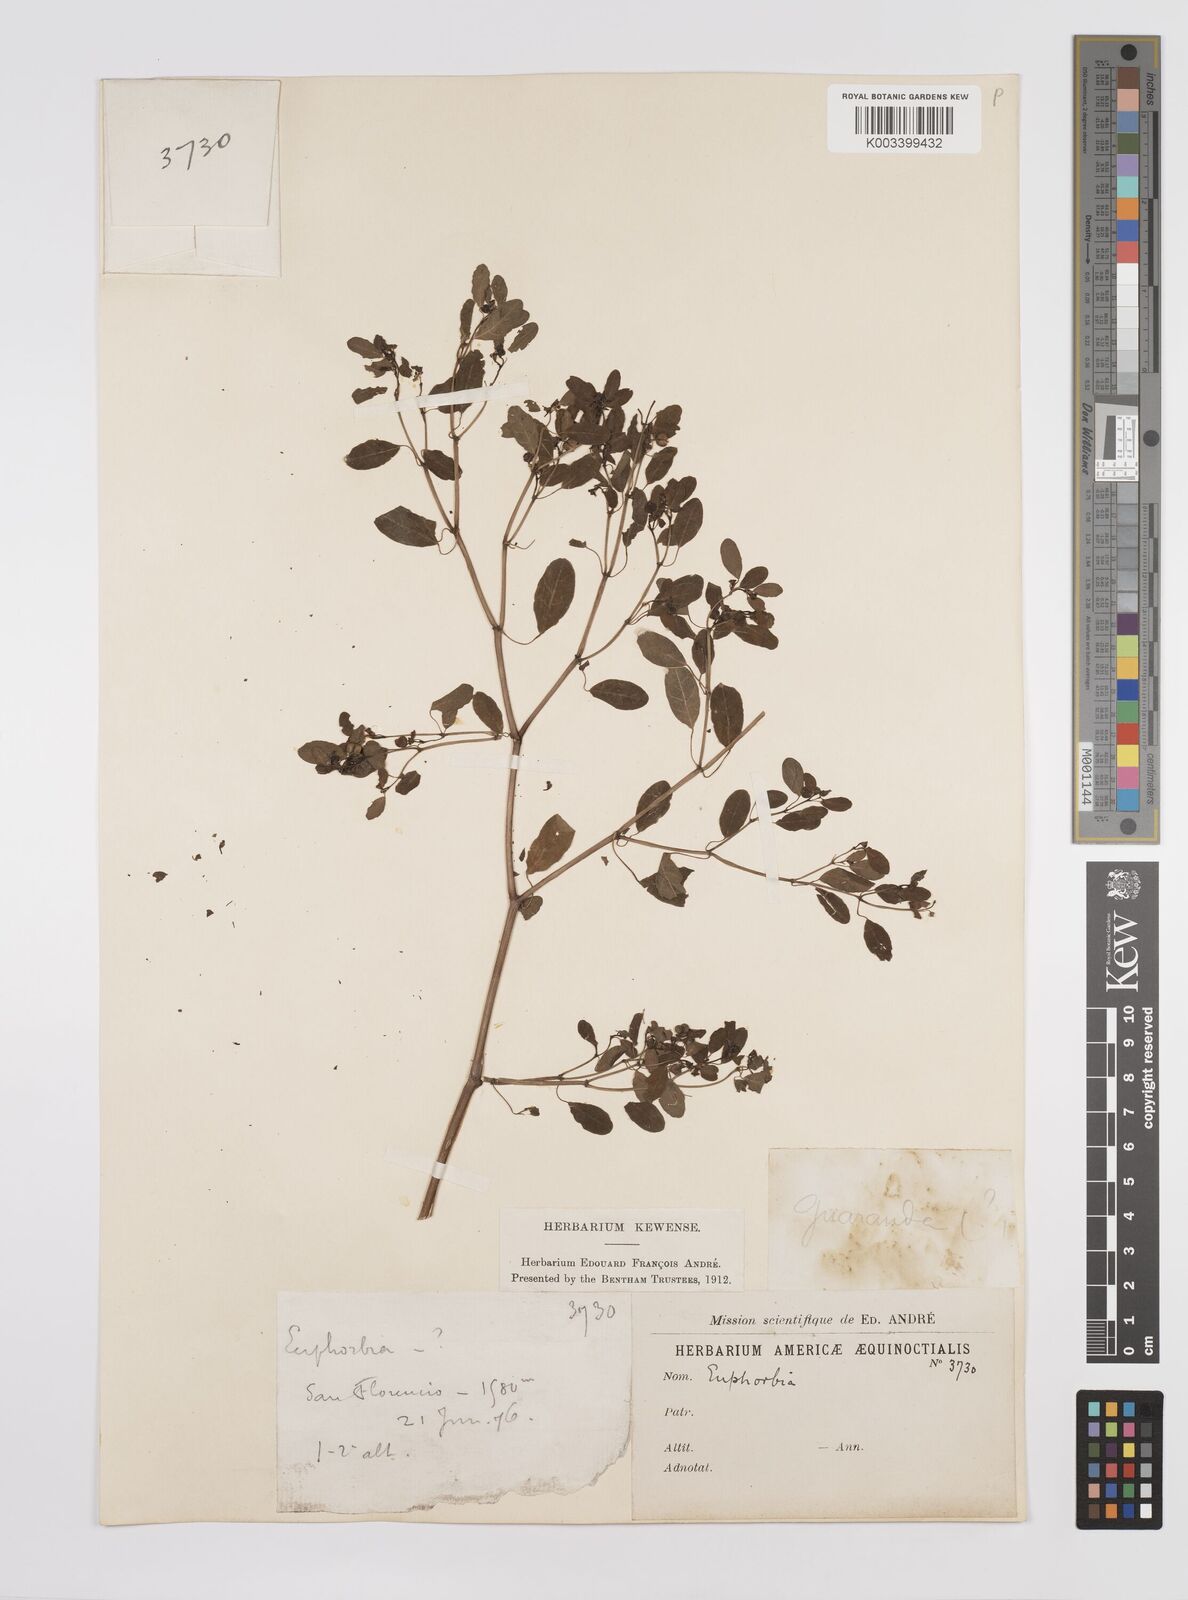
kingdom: Plantae
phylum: Tracheophyta
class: Magnoliopsida
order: Malpighiales
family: Euphorbiaceae
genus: Euphorbia
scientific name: Euphorbia
